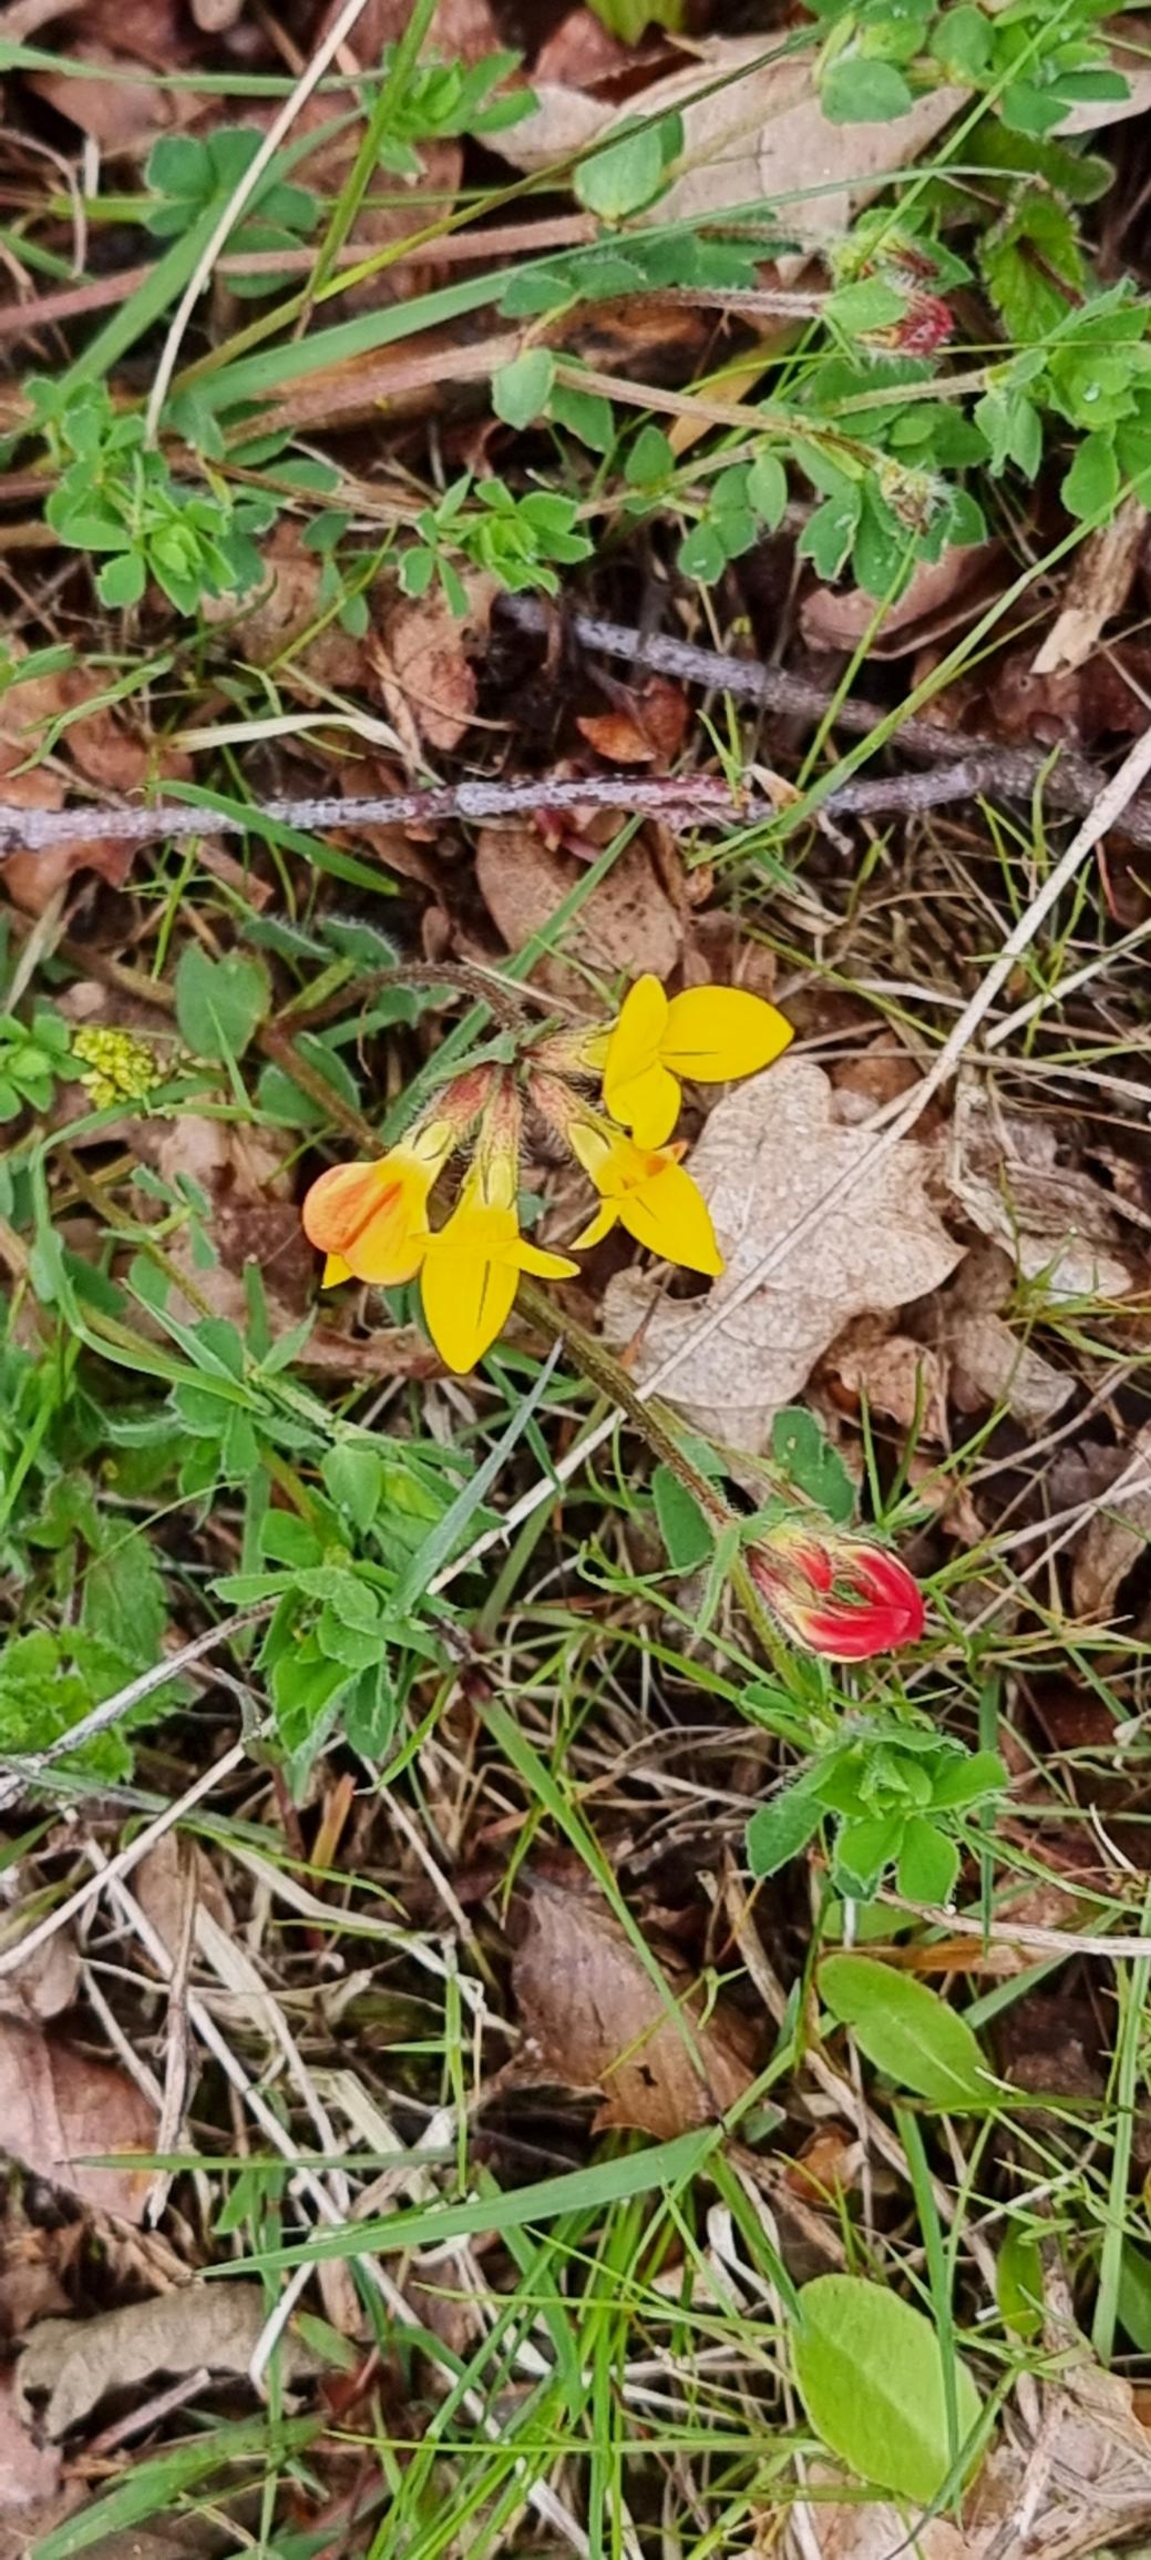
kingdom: Plantae
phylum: Tracheophyta
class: Magnoliopsida
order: Fabales
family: Fabaceae
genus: Lotus
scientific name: Lotus corniculatus
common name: Almindelig kællingetand
